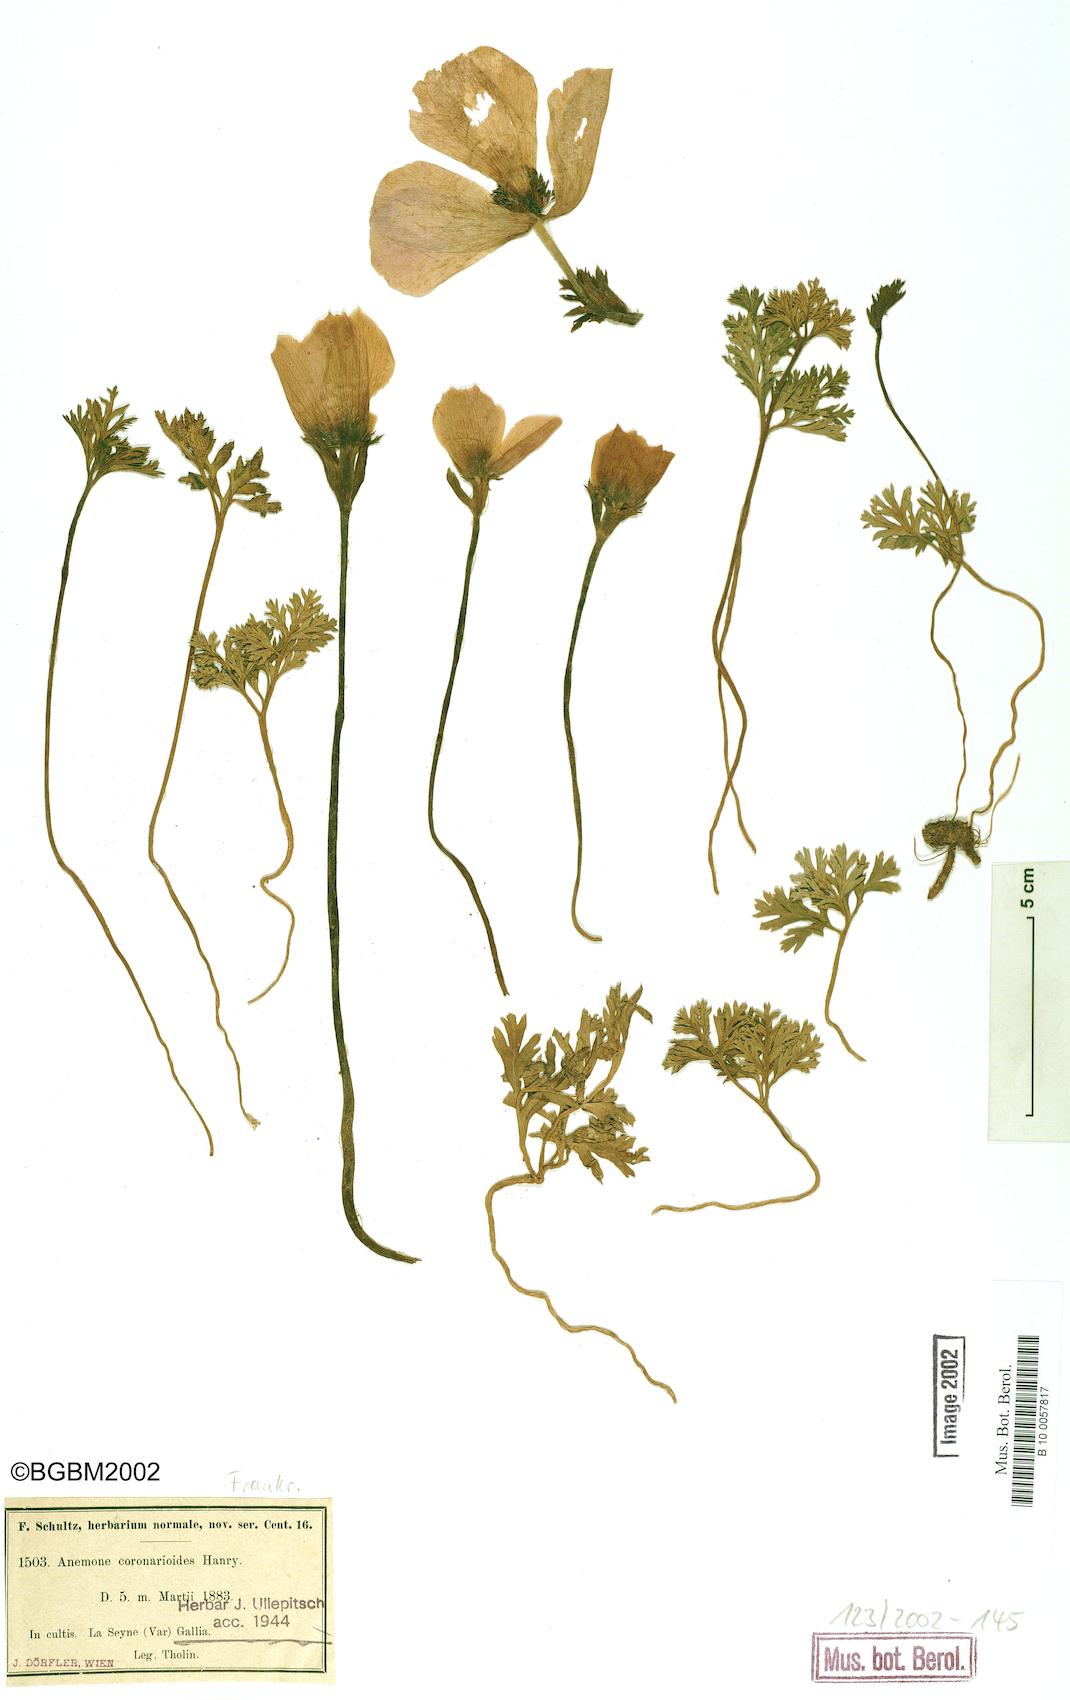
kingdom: Plantae
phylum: Tracheophyta
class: Magnoliopsida
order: Ranunculales
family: Ranunculaceae
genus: Anemone
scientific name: Anemone
